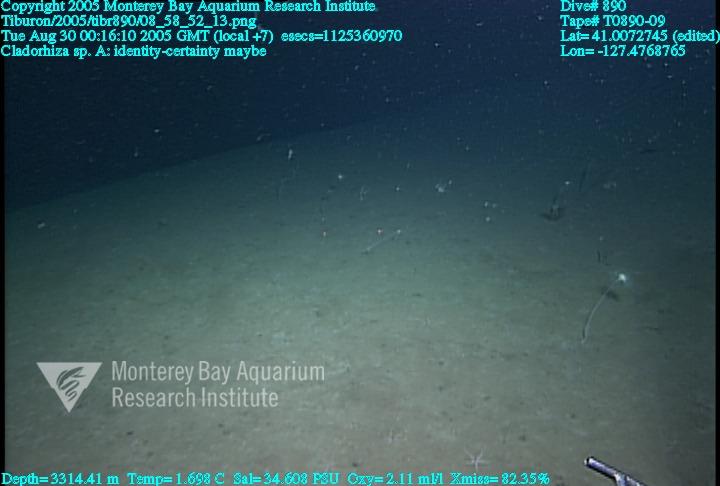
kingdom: Animalia
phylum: Porifera
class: Demospongiae
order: Poecilosclerida
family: Cladorhizidae
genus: Cladorhiza
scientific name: Cladorhiza
